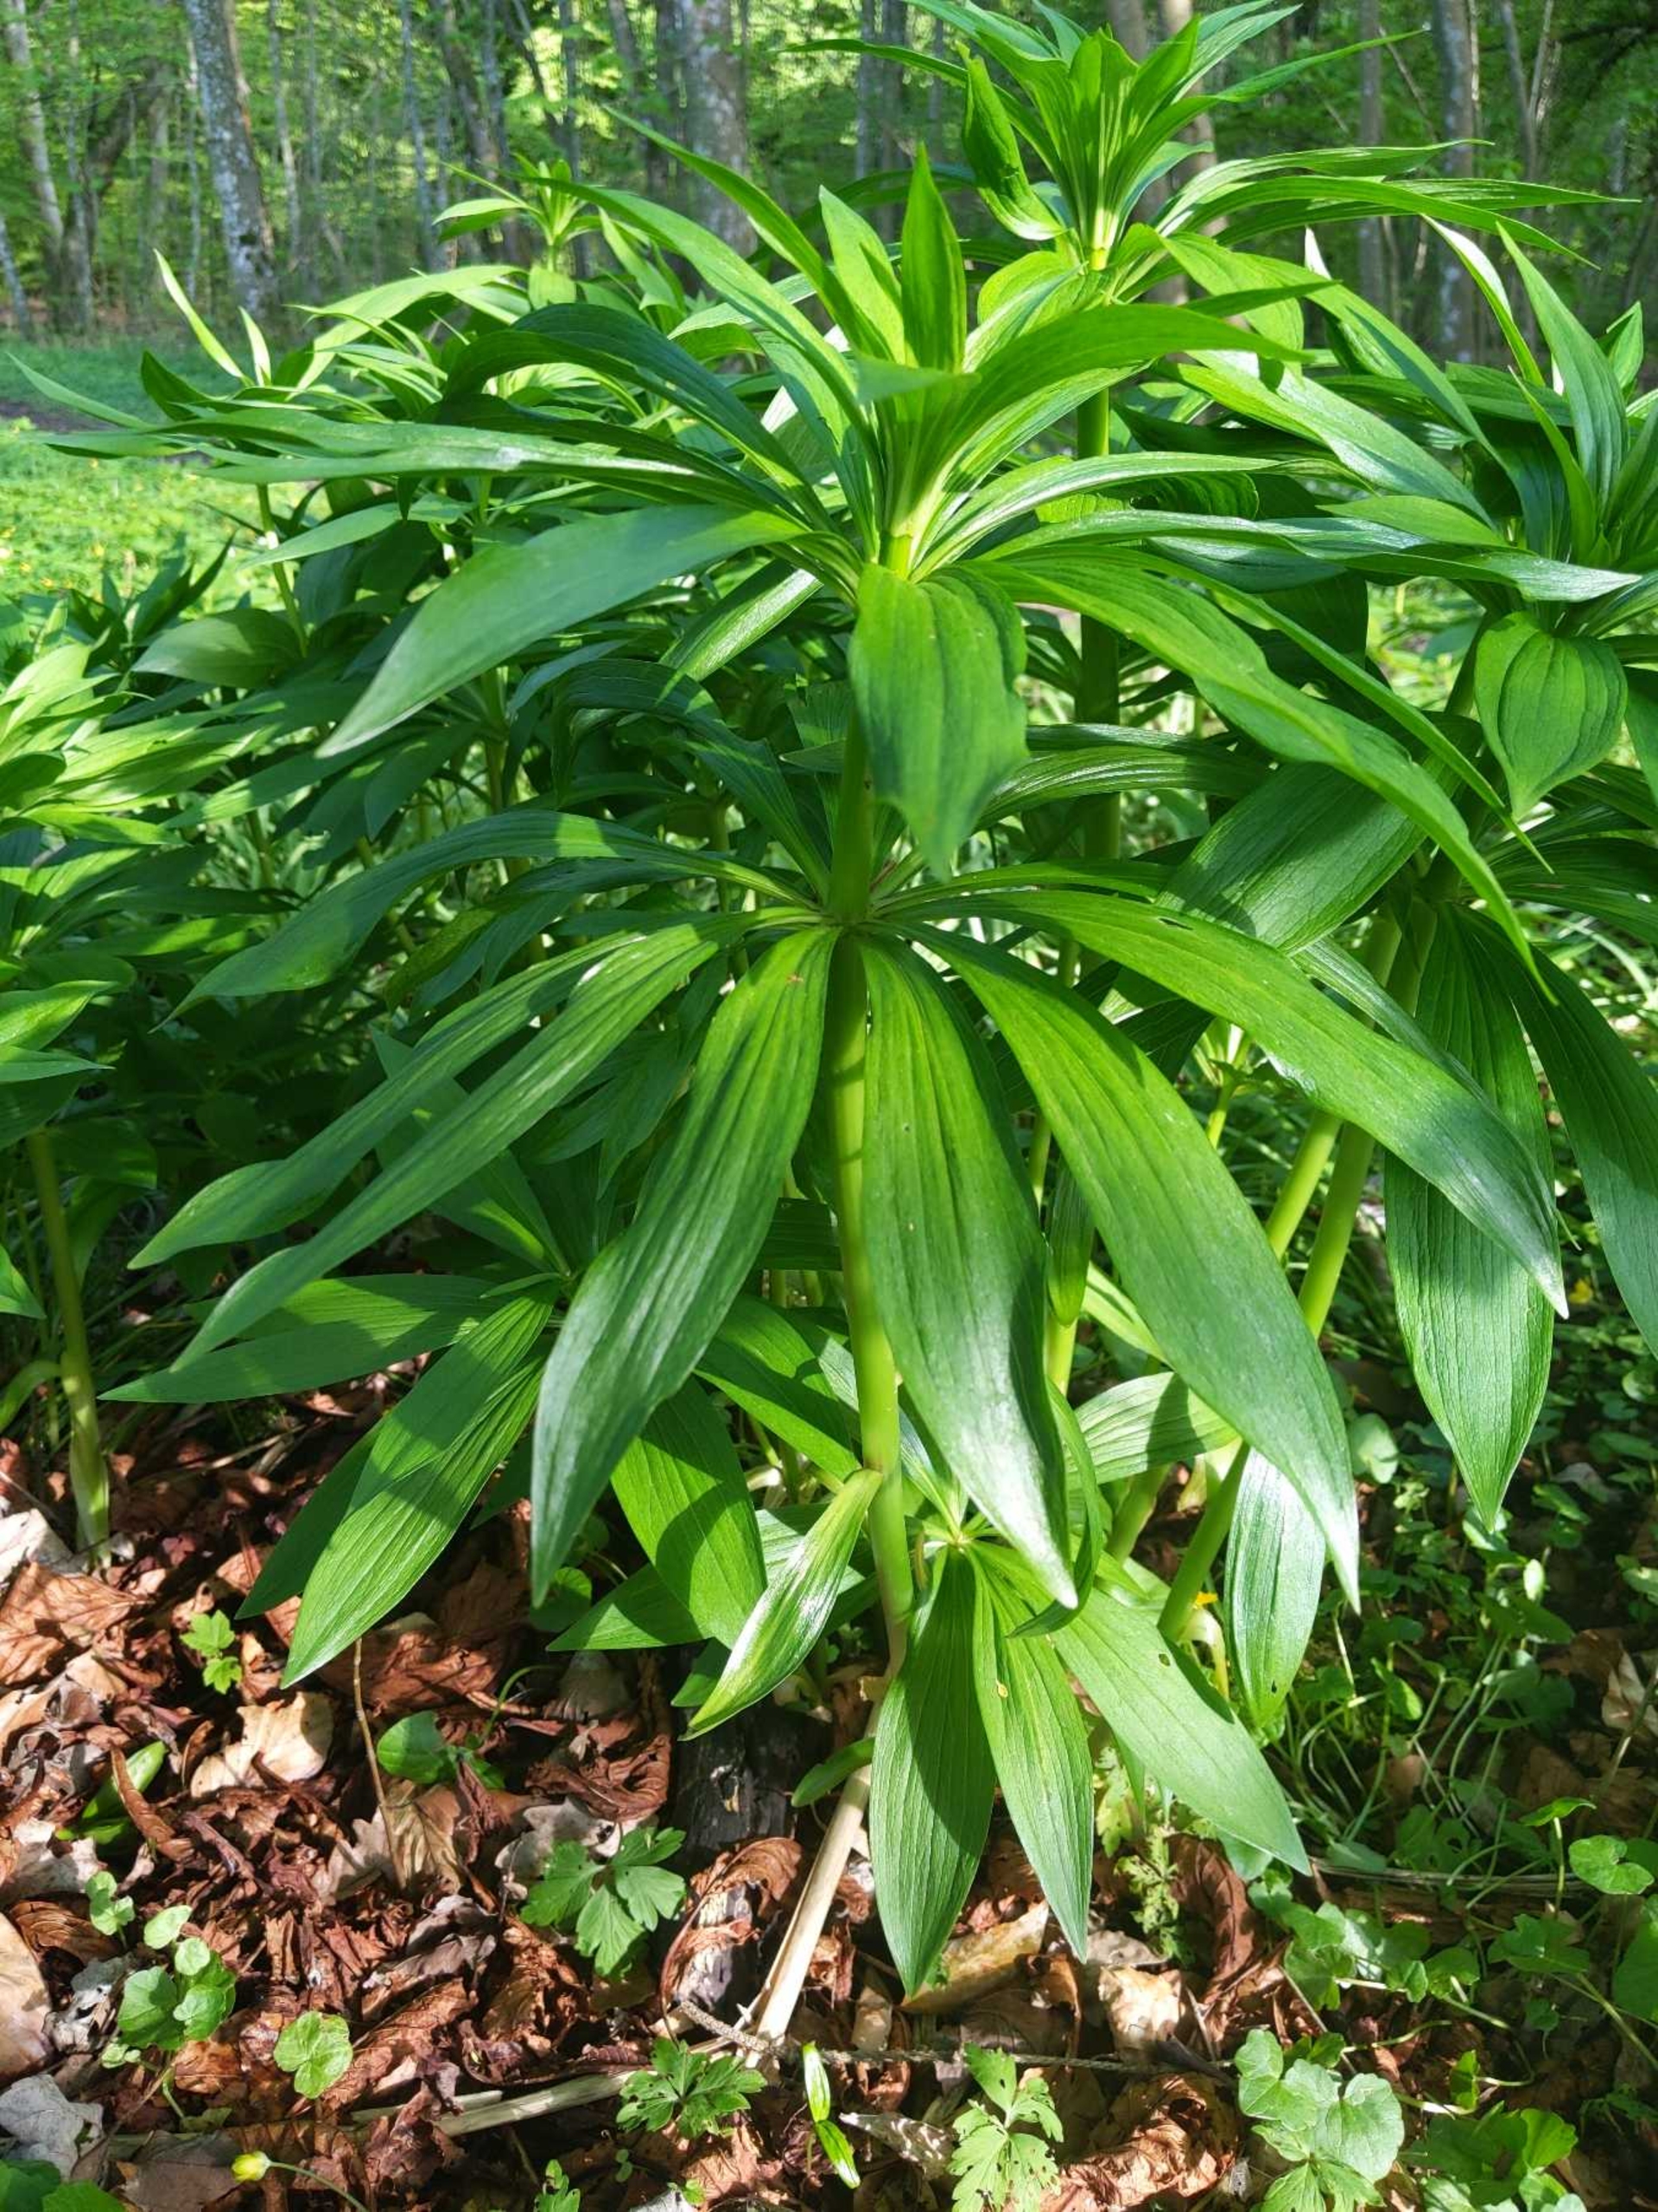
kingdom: Plantae
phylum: Tracheophyta
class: Liliopsida
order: Liliales
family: Liliaceae
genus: Lilium
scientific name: Lilium martagon
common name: Krans-lilje
